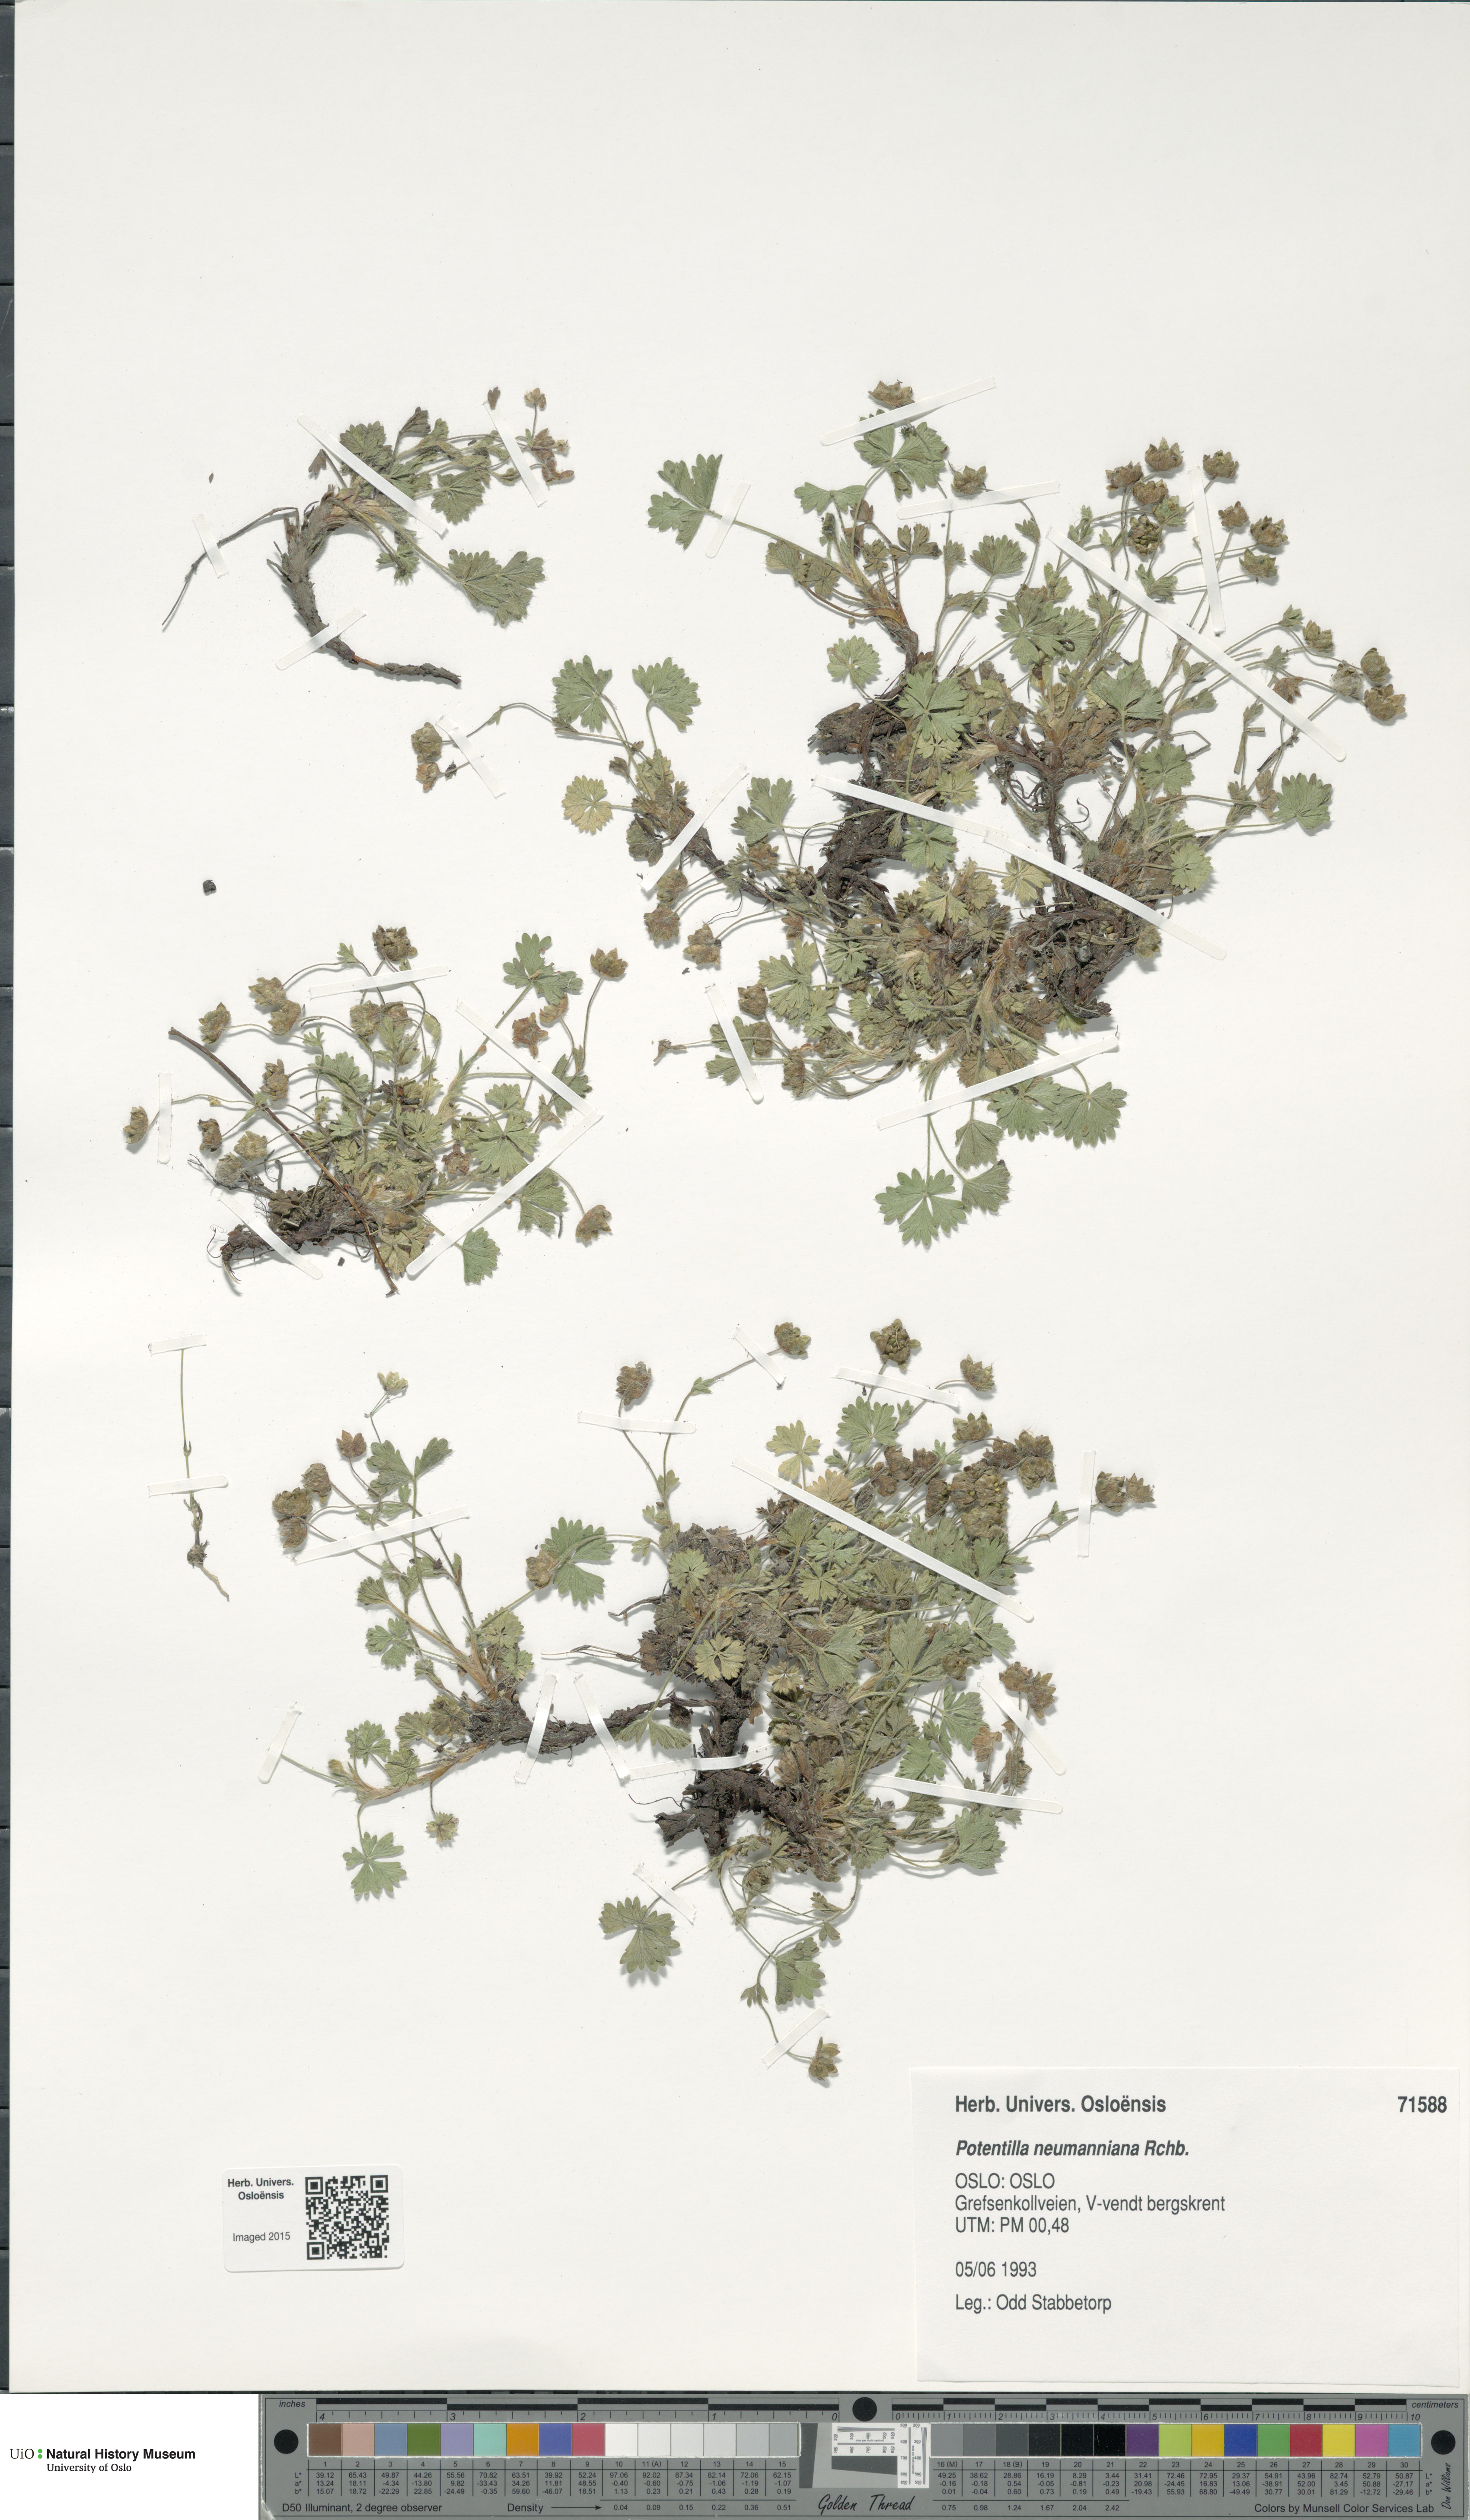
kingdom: Plantae
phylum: Tracheophyta
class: Magnoliopsida
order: Rosales
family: Rosaceae
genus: Potentilla
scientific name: Potentilla verna
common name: Spring cinquefoil
